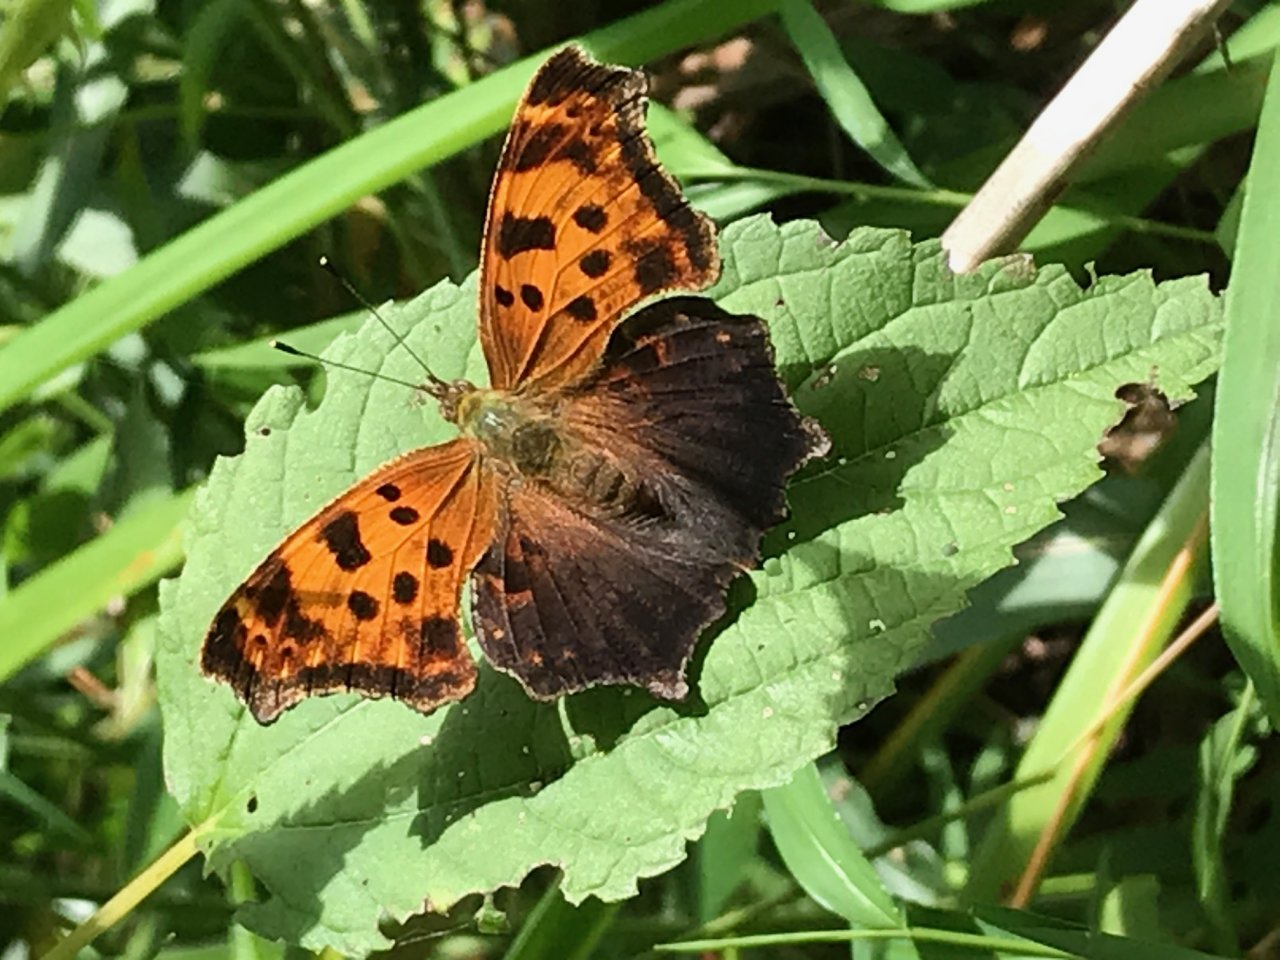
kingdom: Animalia
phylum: Arthropoda
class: Insecta
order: Lepidoptera
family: Nymphalidae
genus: Polygonia
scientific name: Polygonia comma
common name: Eastern Comma
